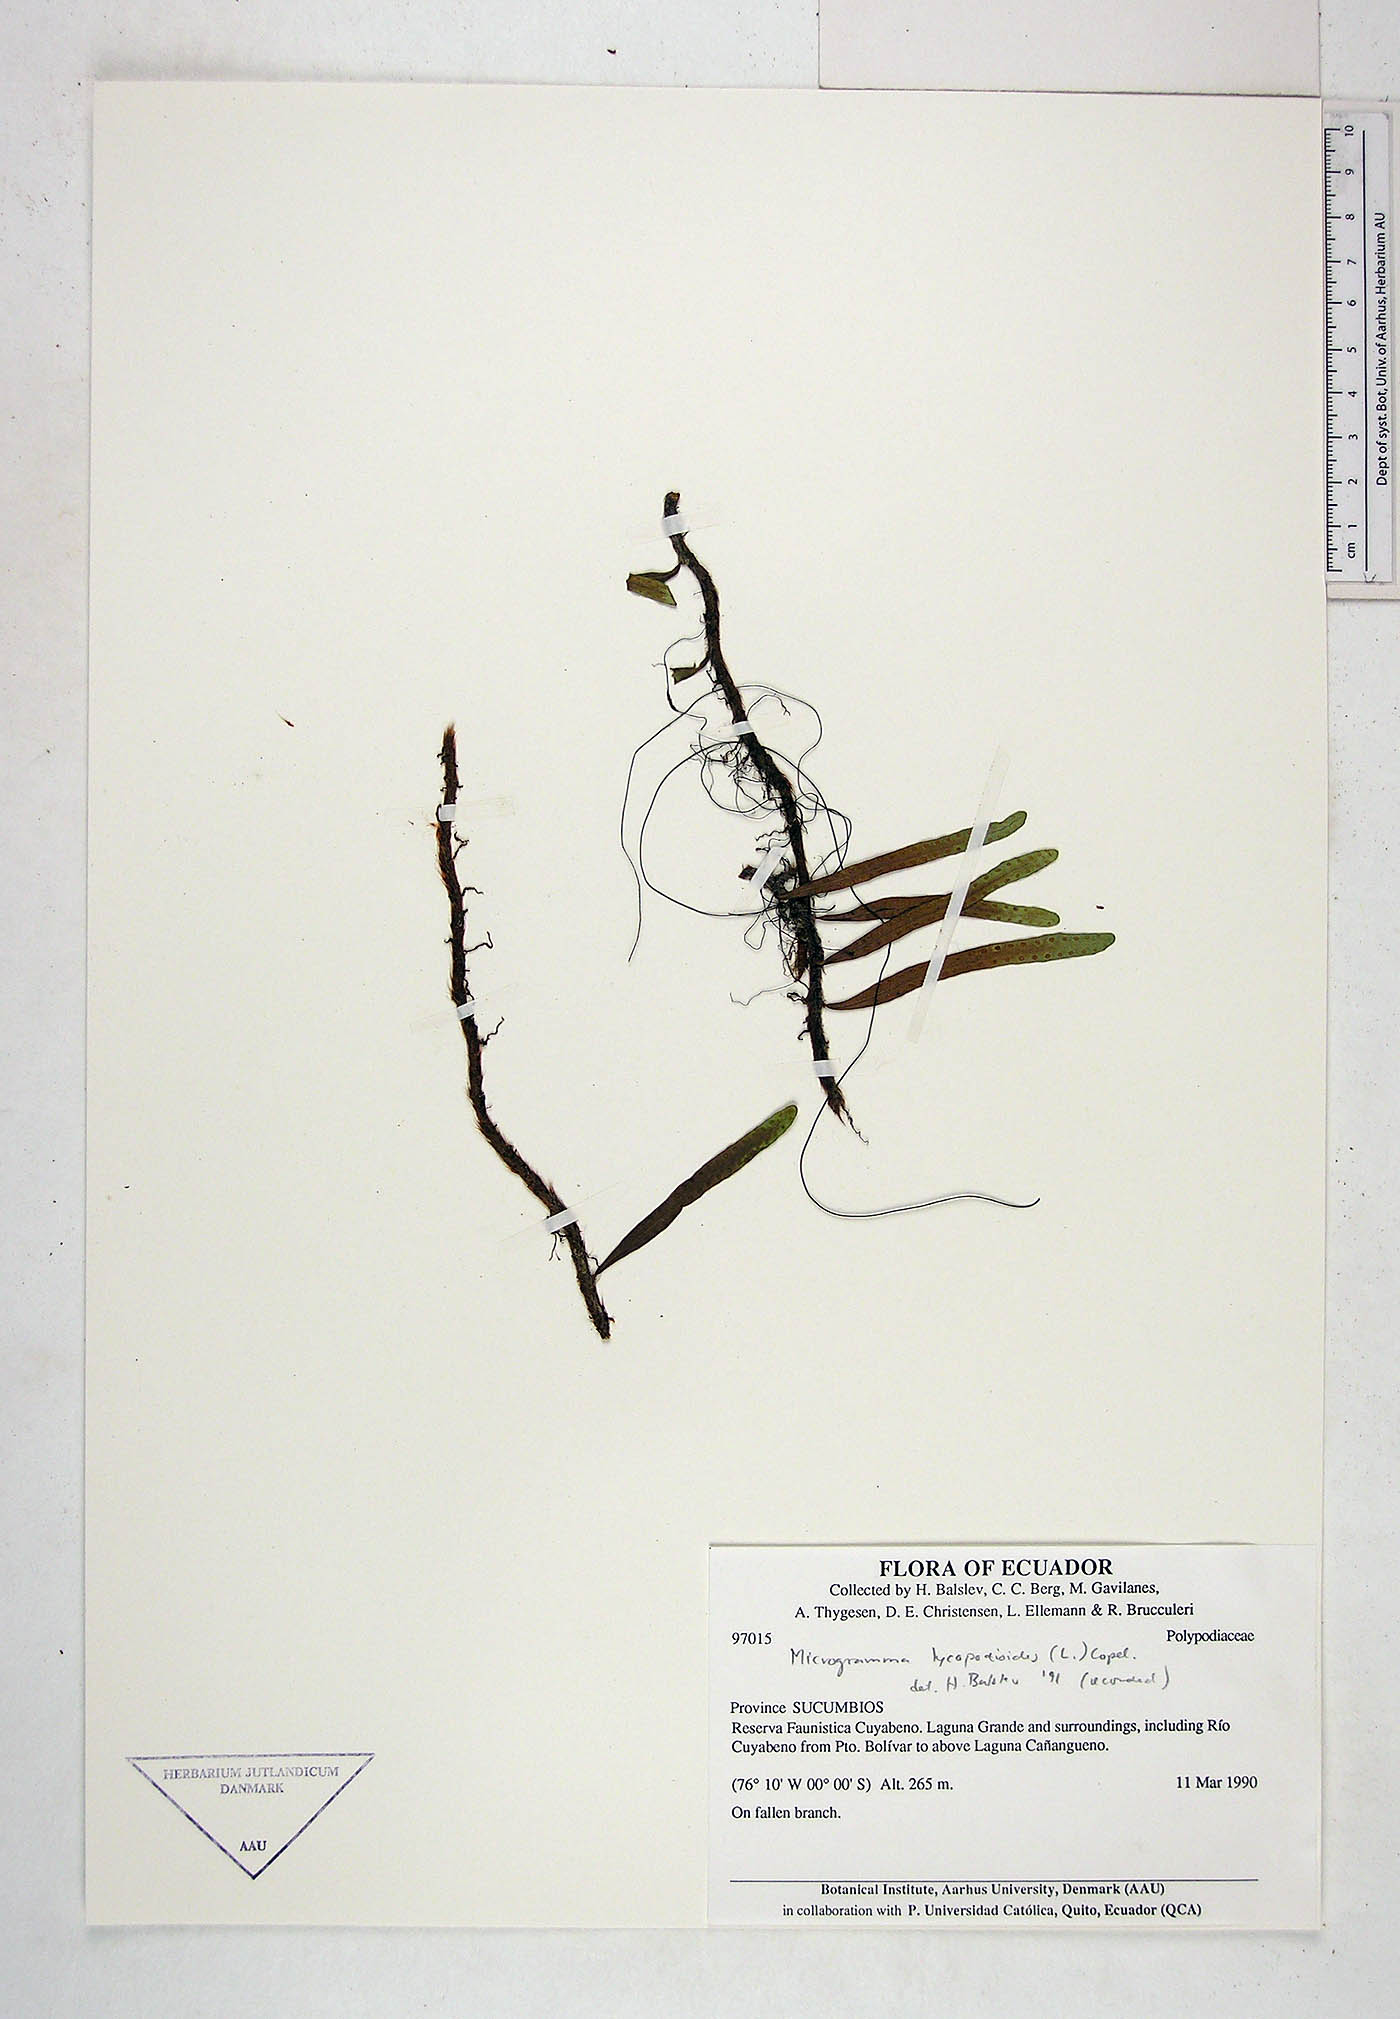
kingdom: Plantae
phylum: Tracheophyta
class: Polypodiopsida
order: Polypodiales
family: Polypodiaceae
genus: Microgramma
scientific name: Microgramma lycopodioides
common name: Bastard catclaw
